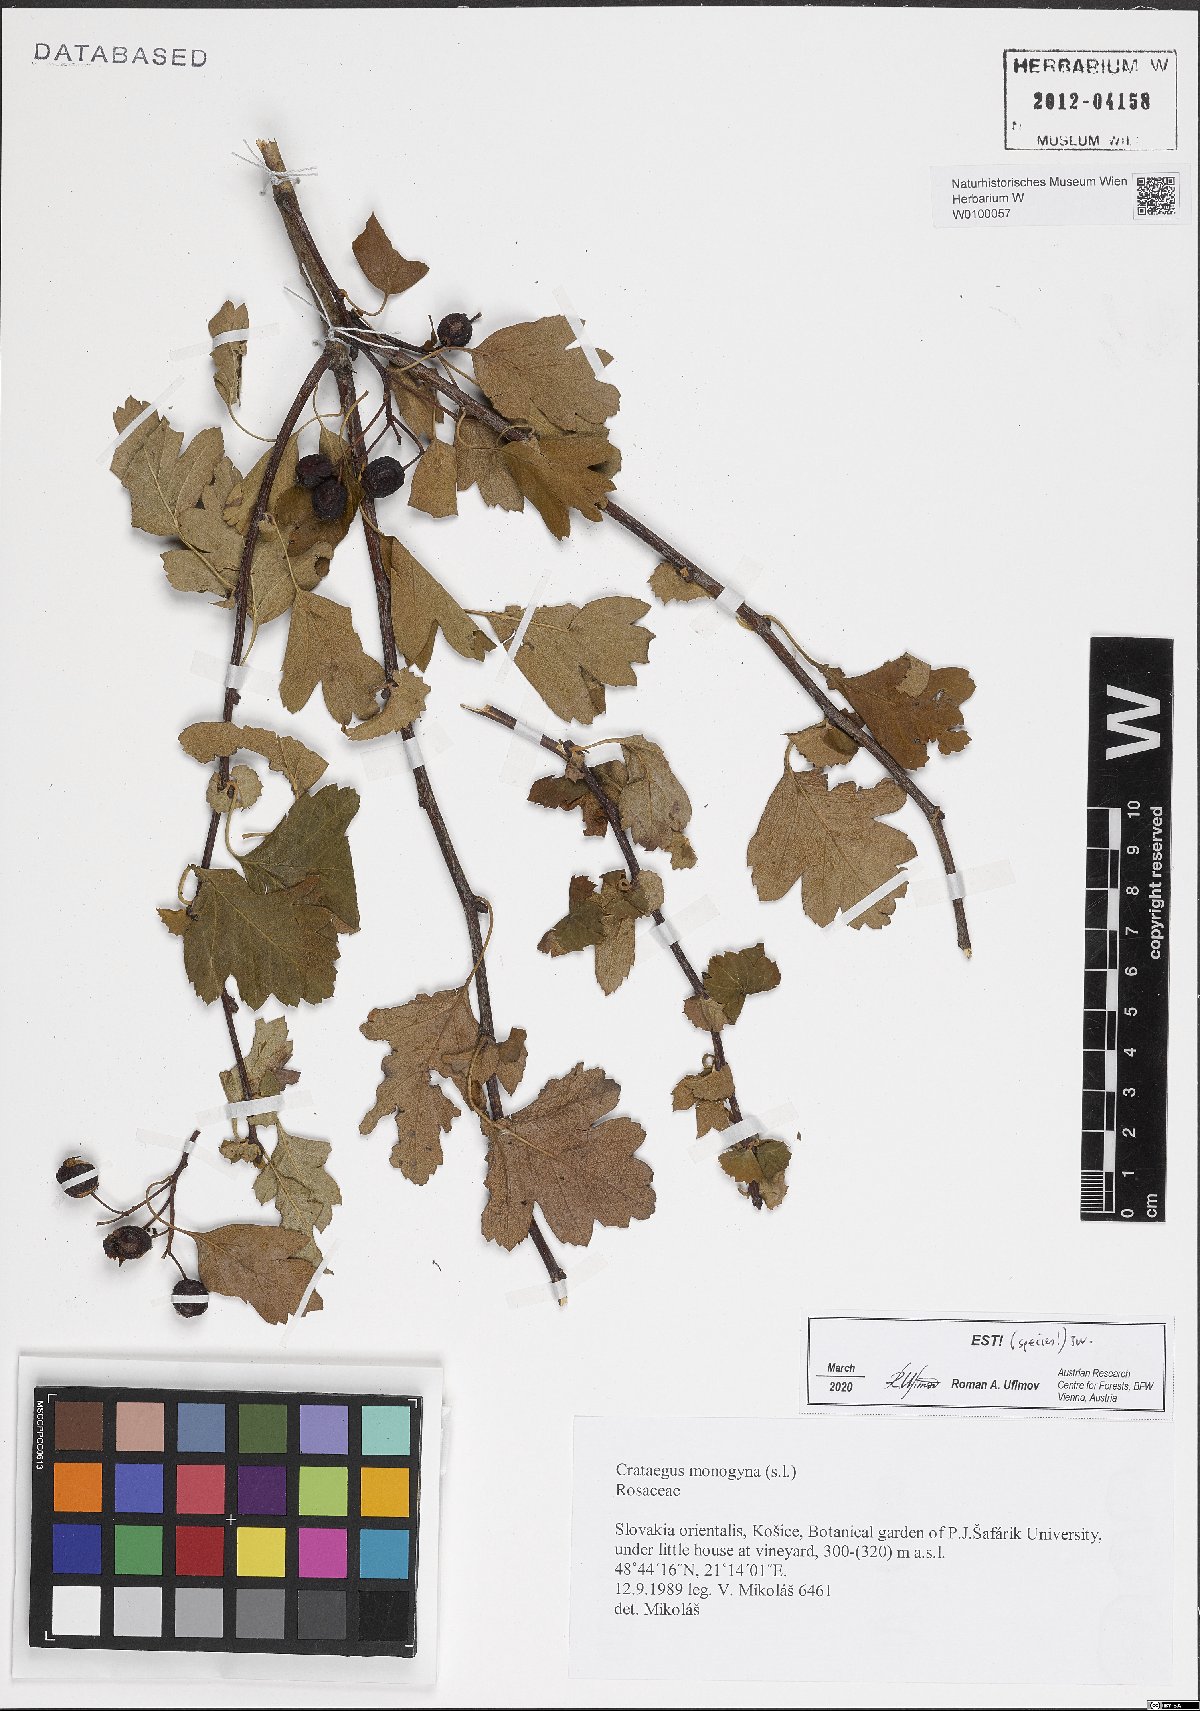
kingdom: Plantae
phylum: Tracheophyta
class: Magnoliopsida
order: Rosales
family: Rosaceae
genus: Crataegus
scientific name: Crataegus monogyna
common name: Hawthorn
